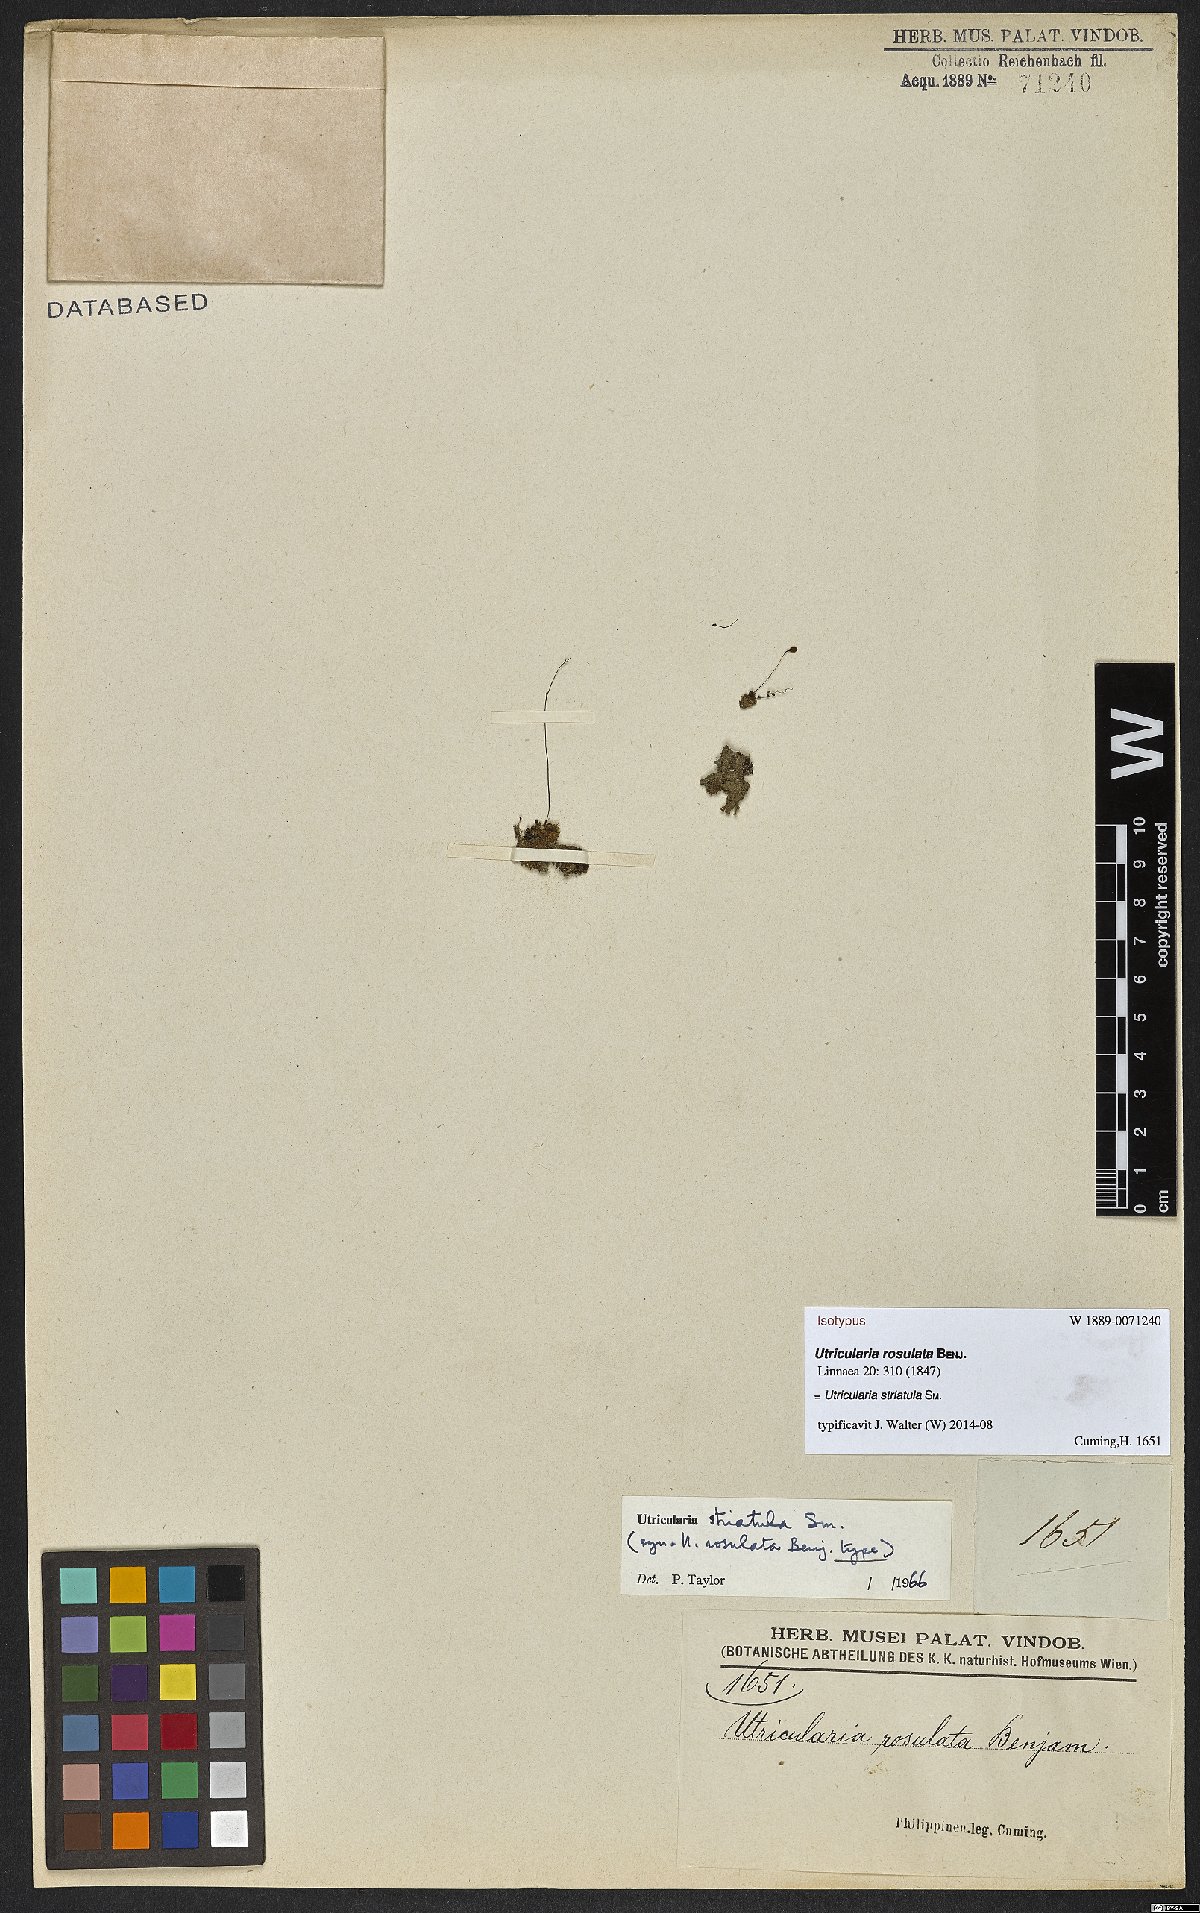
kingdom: Plantae
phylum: Tracheophyta
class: Magnoliopsida
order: Lamiales
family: Lentibulariaceae
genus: Utricularia
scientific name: Utricularia striatula
